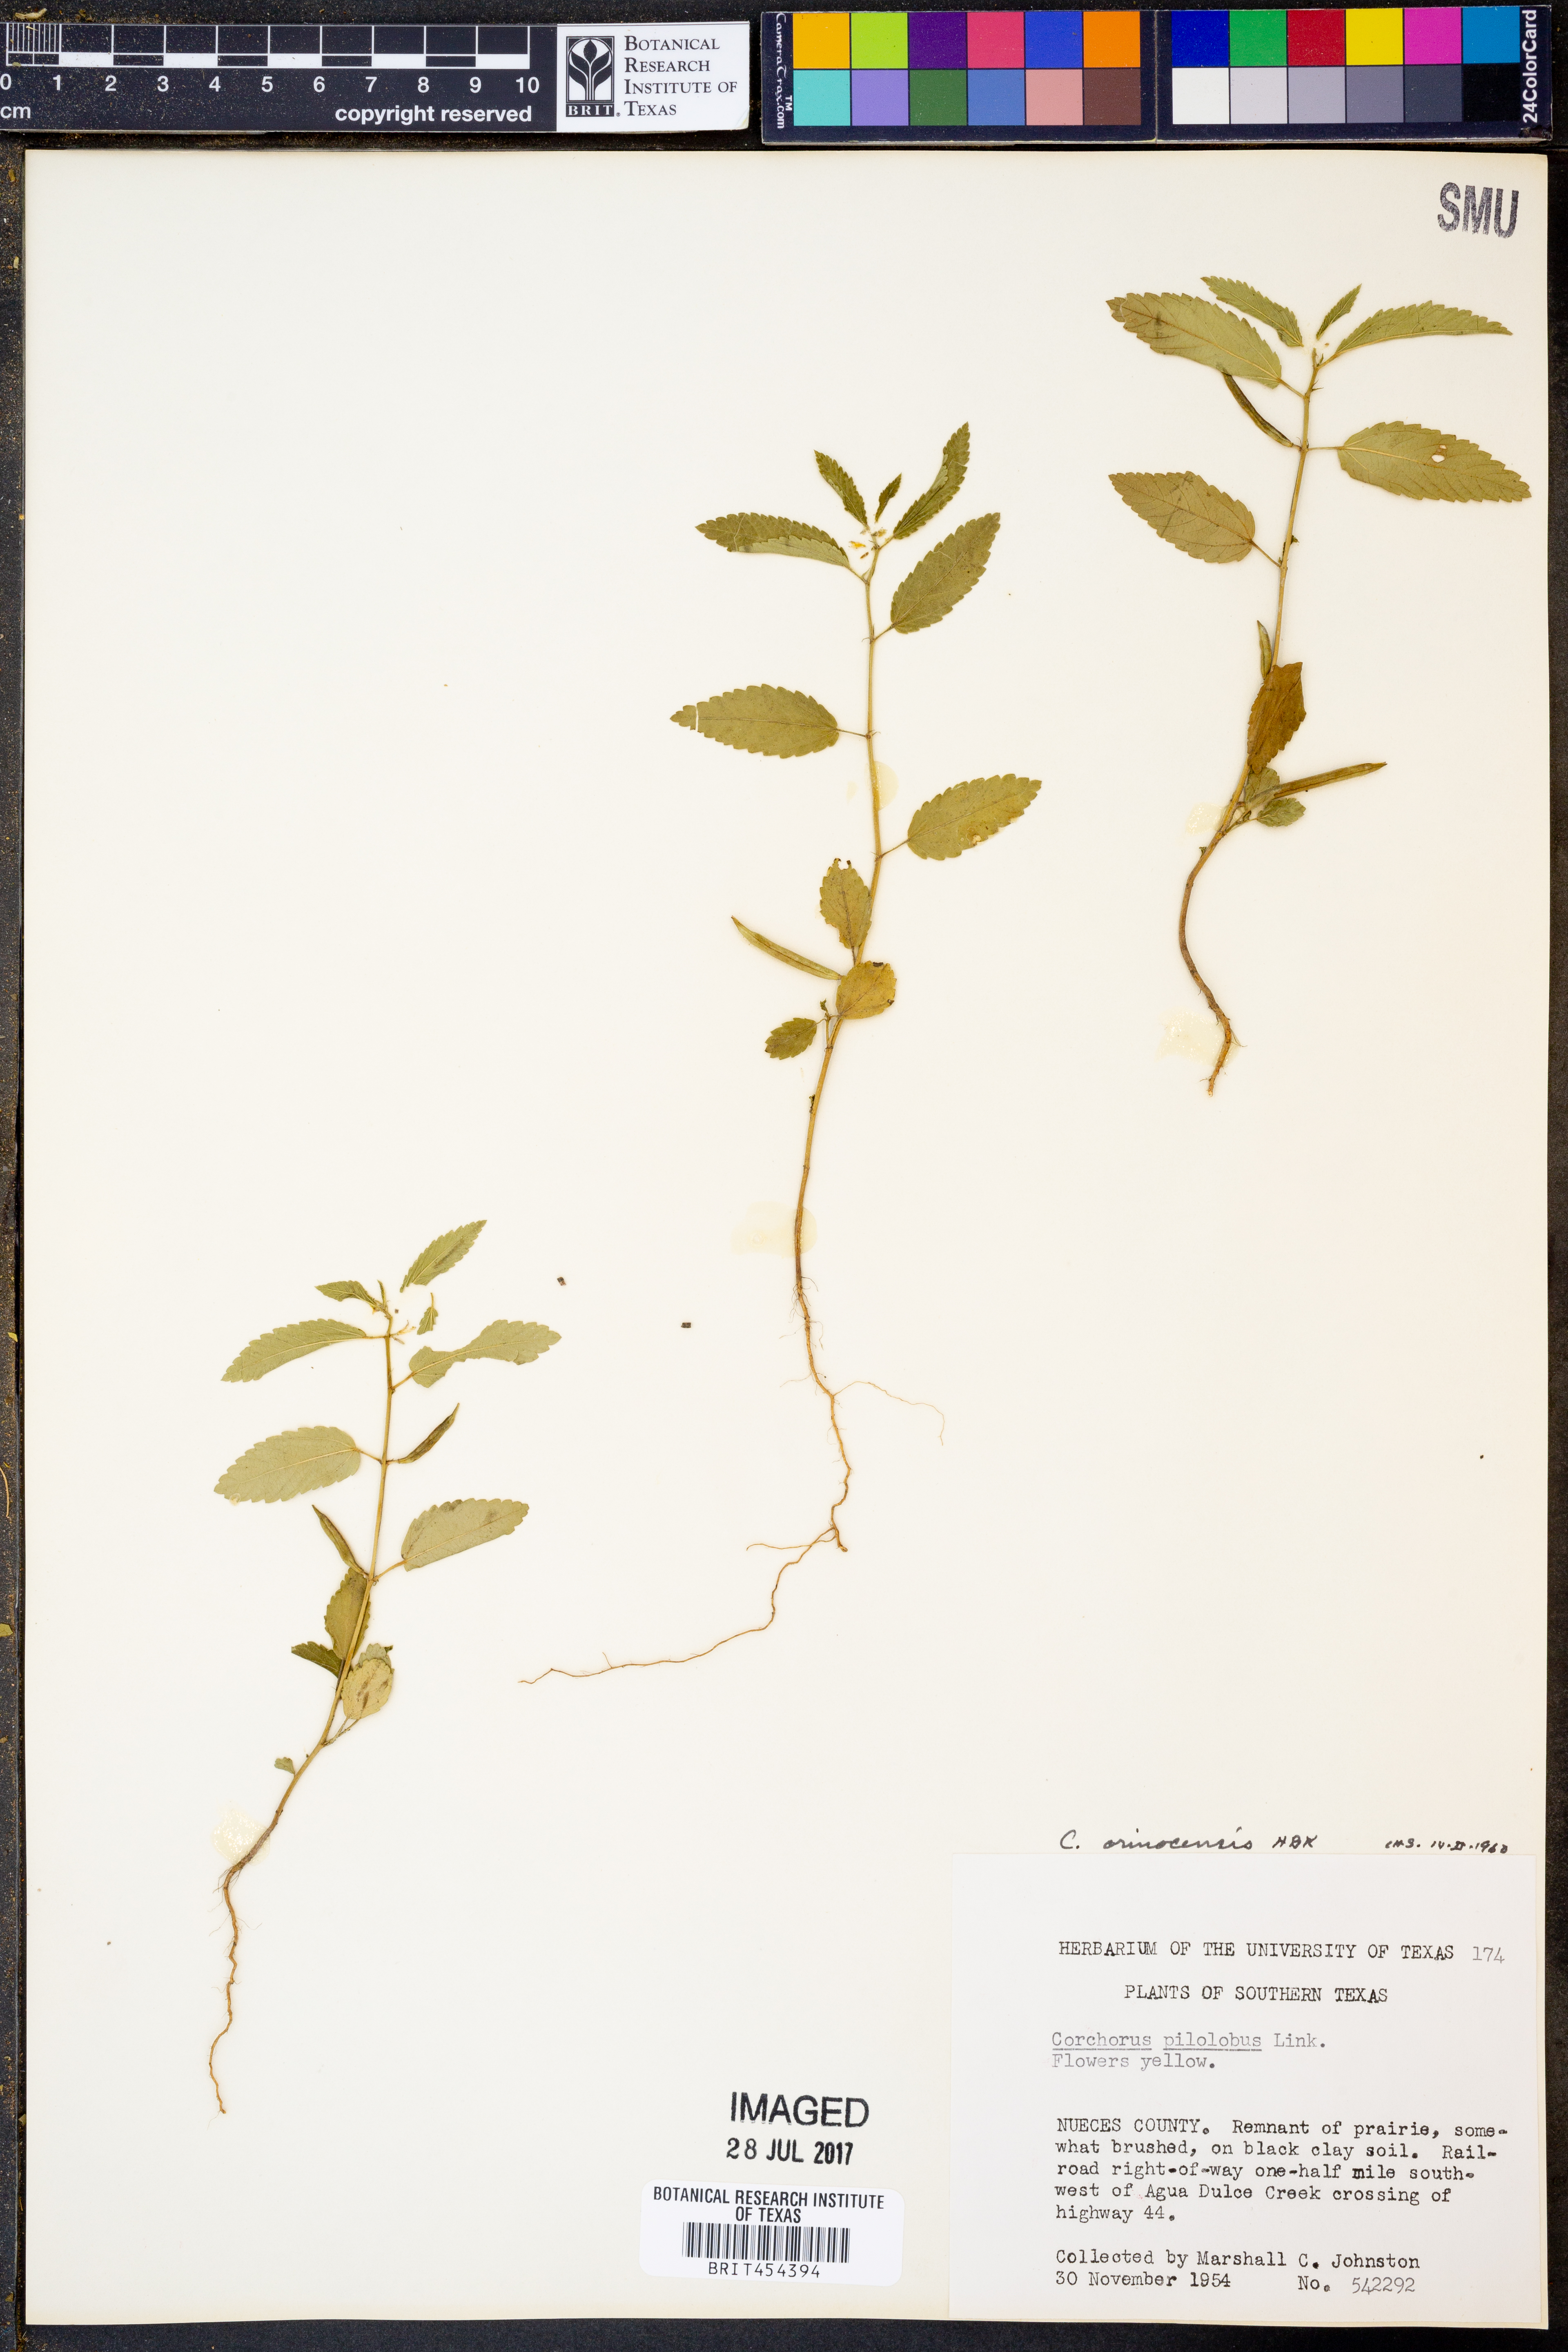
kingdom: Plantae
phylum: Tracheophyta
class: Magnoliopsida
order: Malvales
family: Malvaceae
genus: Corchorus
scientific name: Corchorus hirtus
